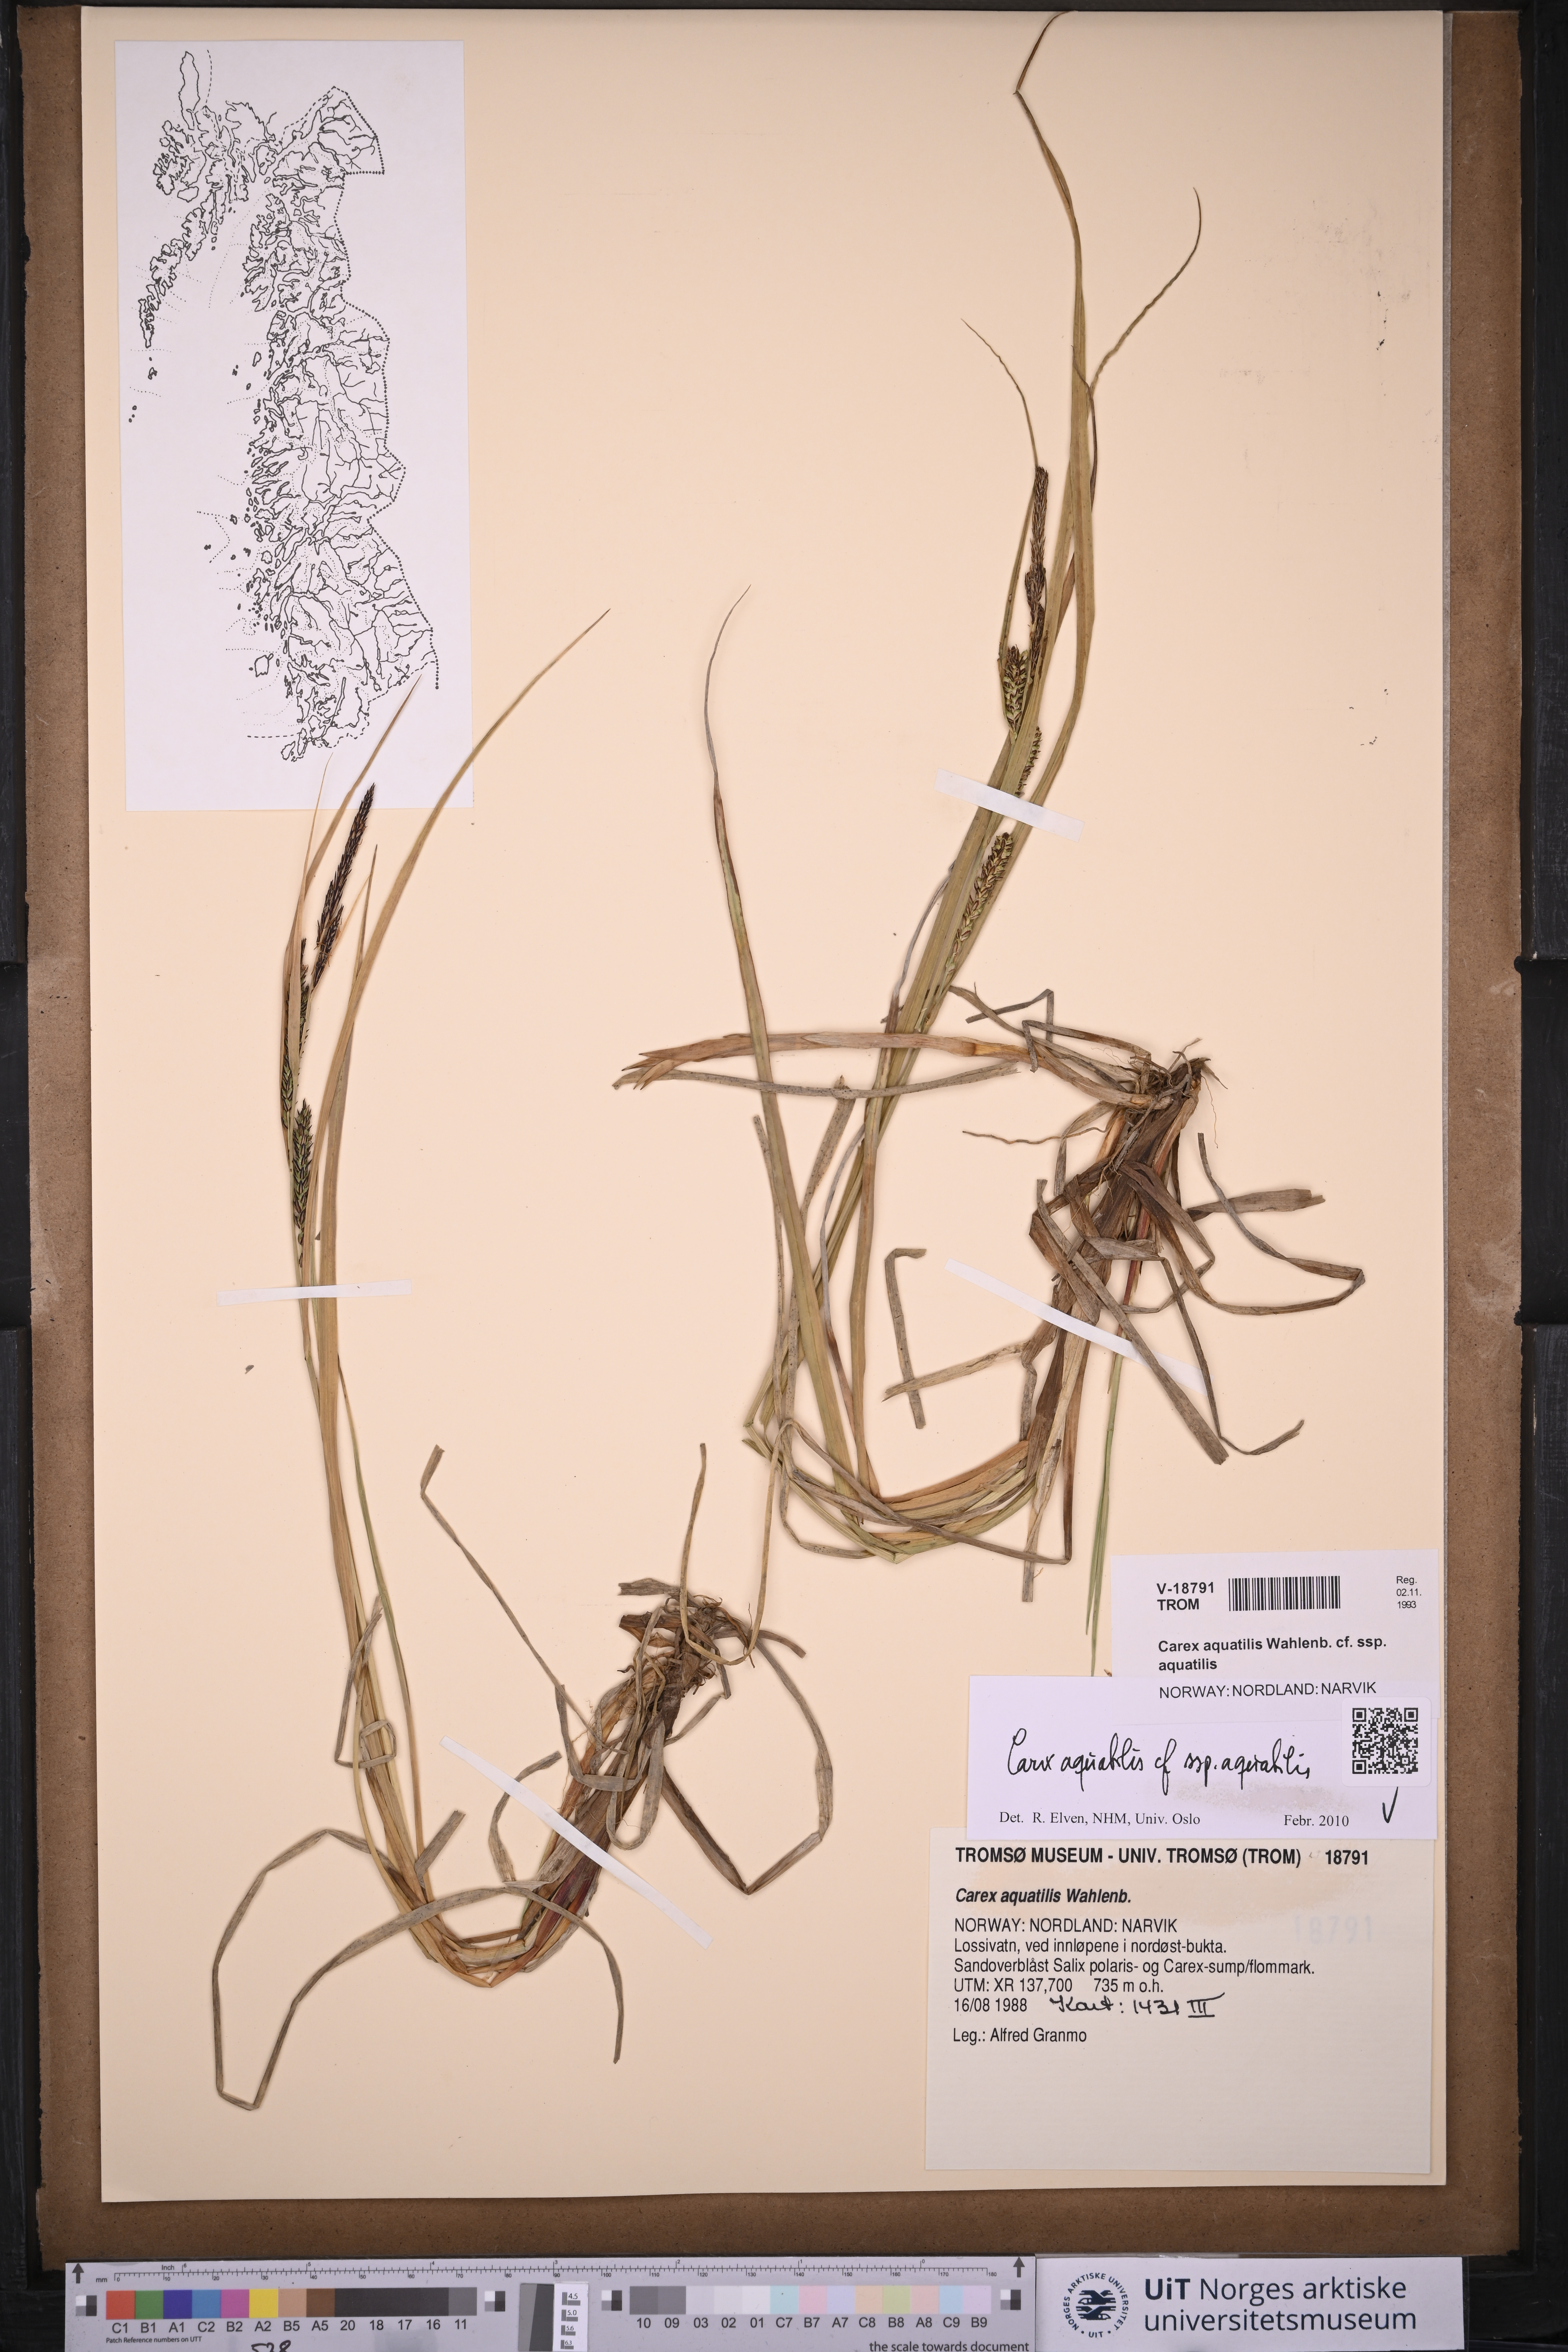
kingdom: Plantae
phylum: Tracheophyta
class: Liliopsida
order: Poales
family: Cyperaceae
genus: Carex
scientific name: Carex aquatilis
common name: Water sedge
